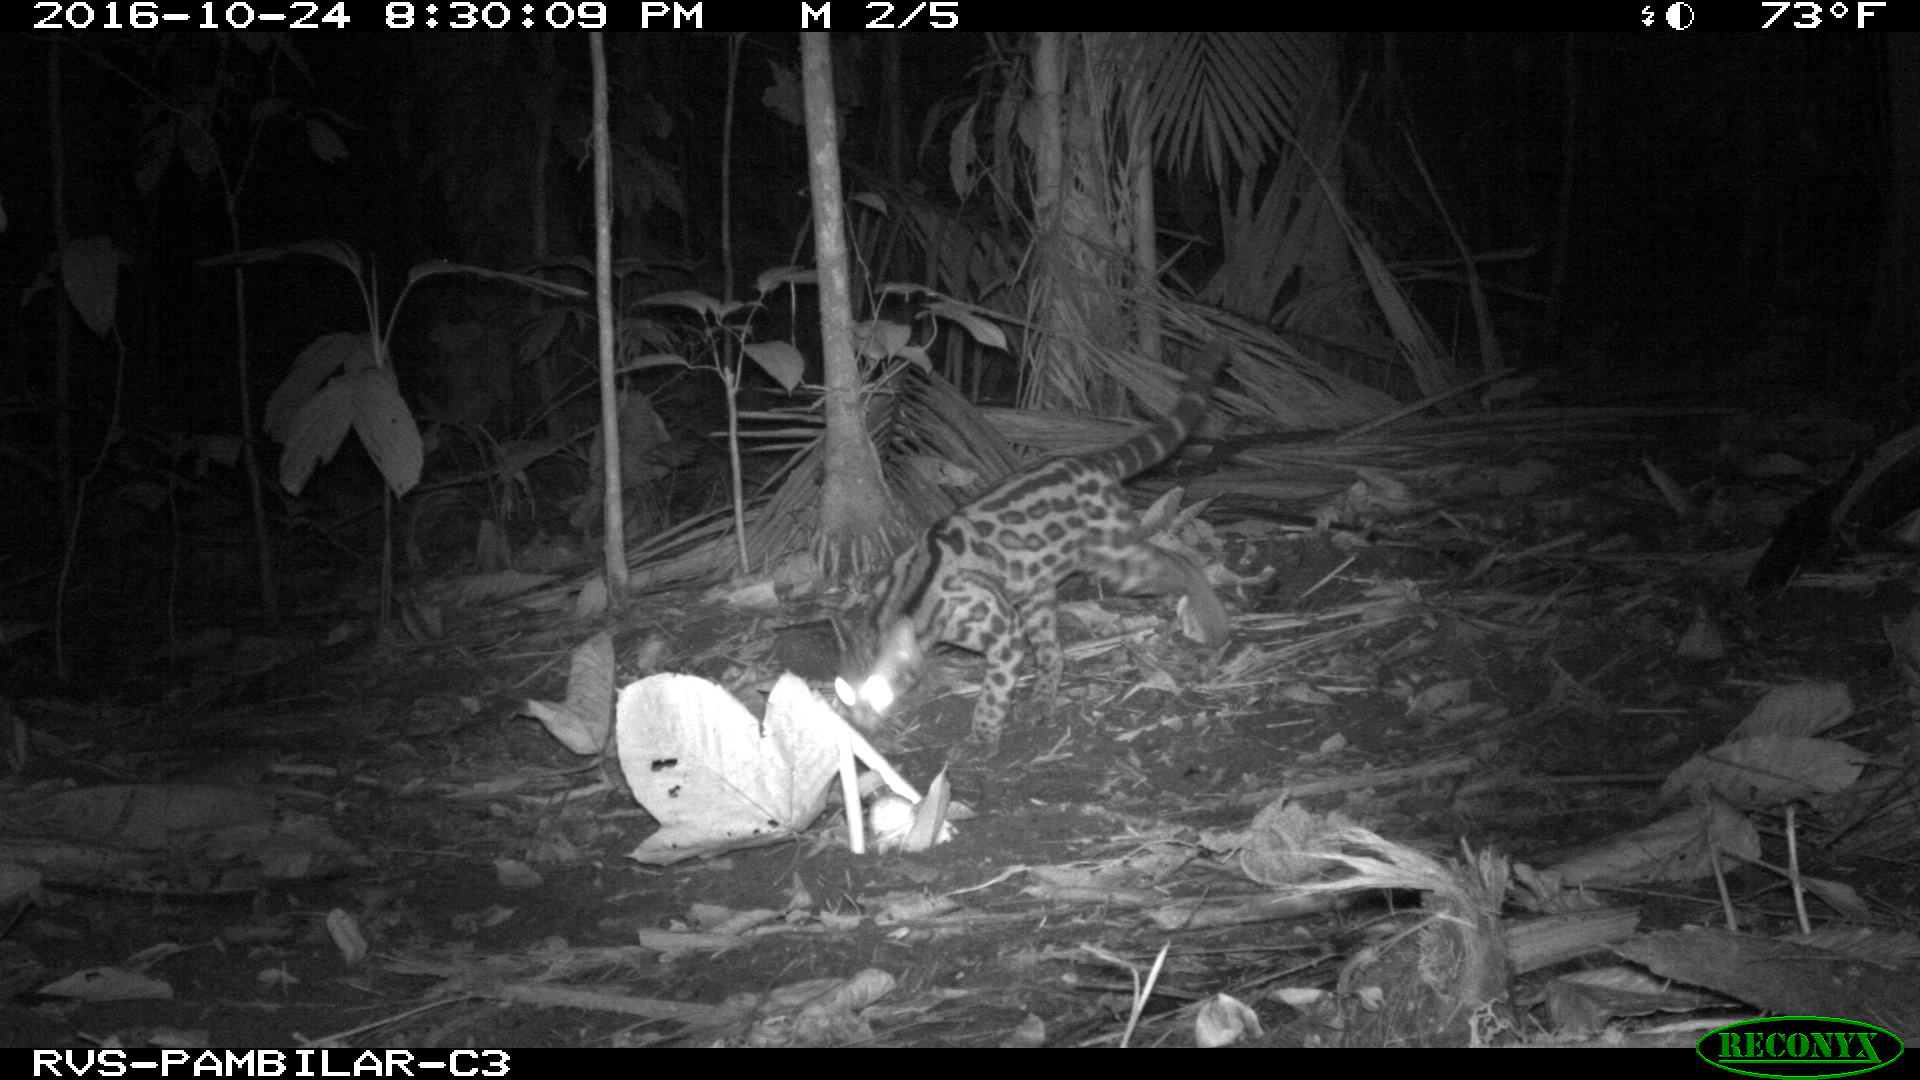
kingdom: Animalia
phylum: Chordata
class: Mammalia
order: Carnivora
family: Felidae
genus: Leopardus
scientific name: Leopardus pardalis
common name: Ocelot
